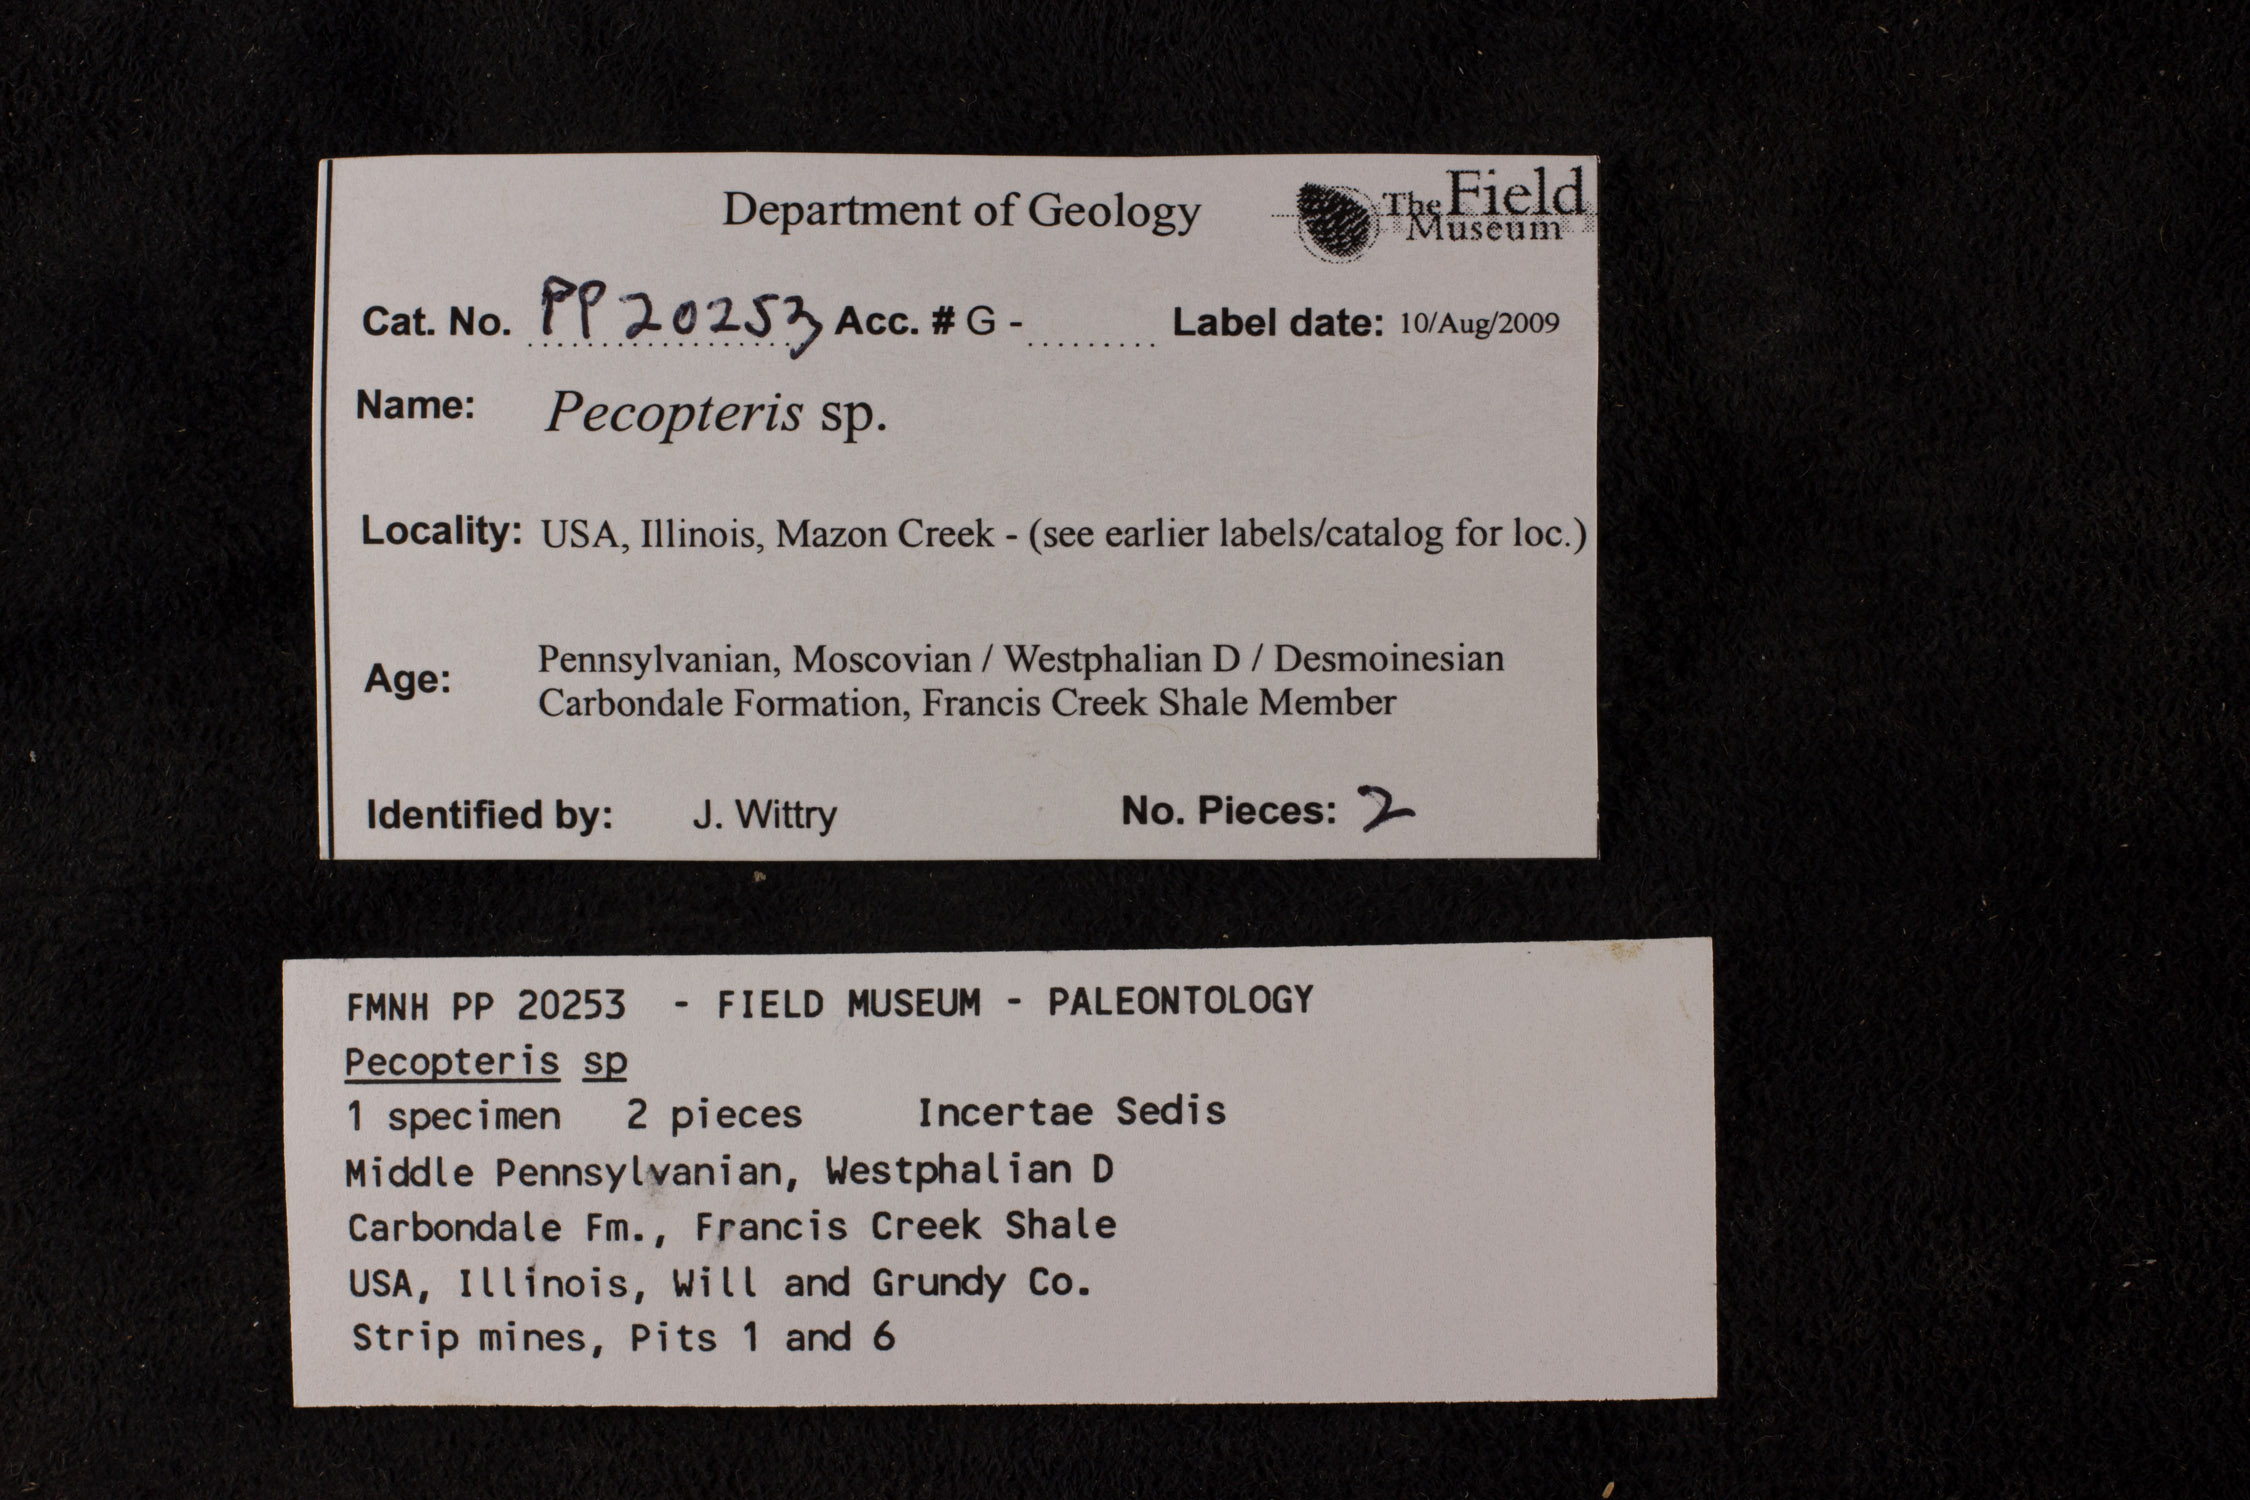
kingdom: Plantae
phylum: Tracheophyta
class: Polypodiopsida
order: Marattiales
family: Asterothecaceae
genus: Pecopteris
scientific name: Pecopteris
